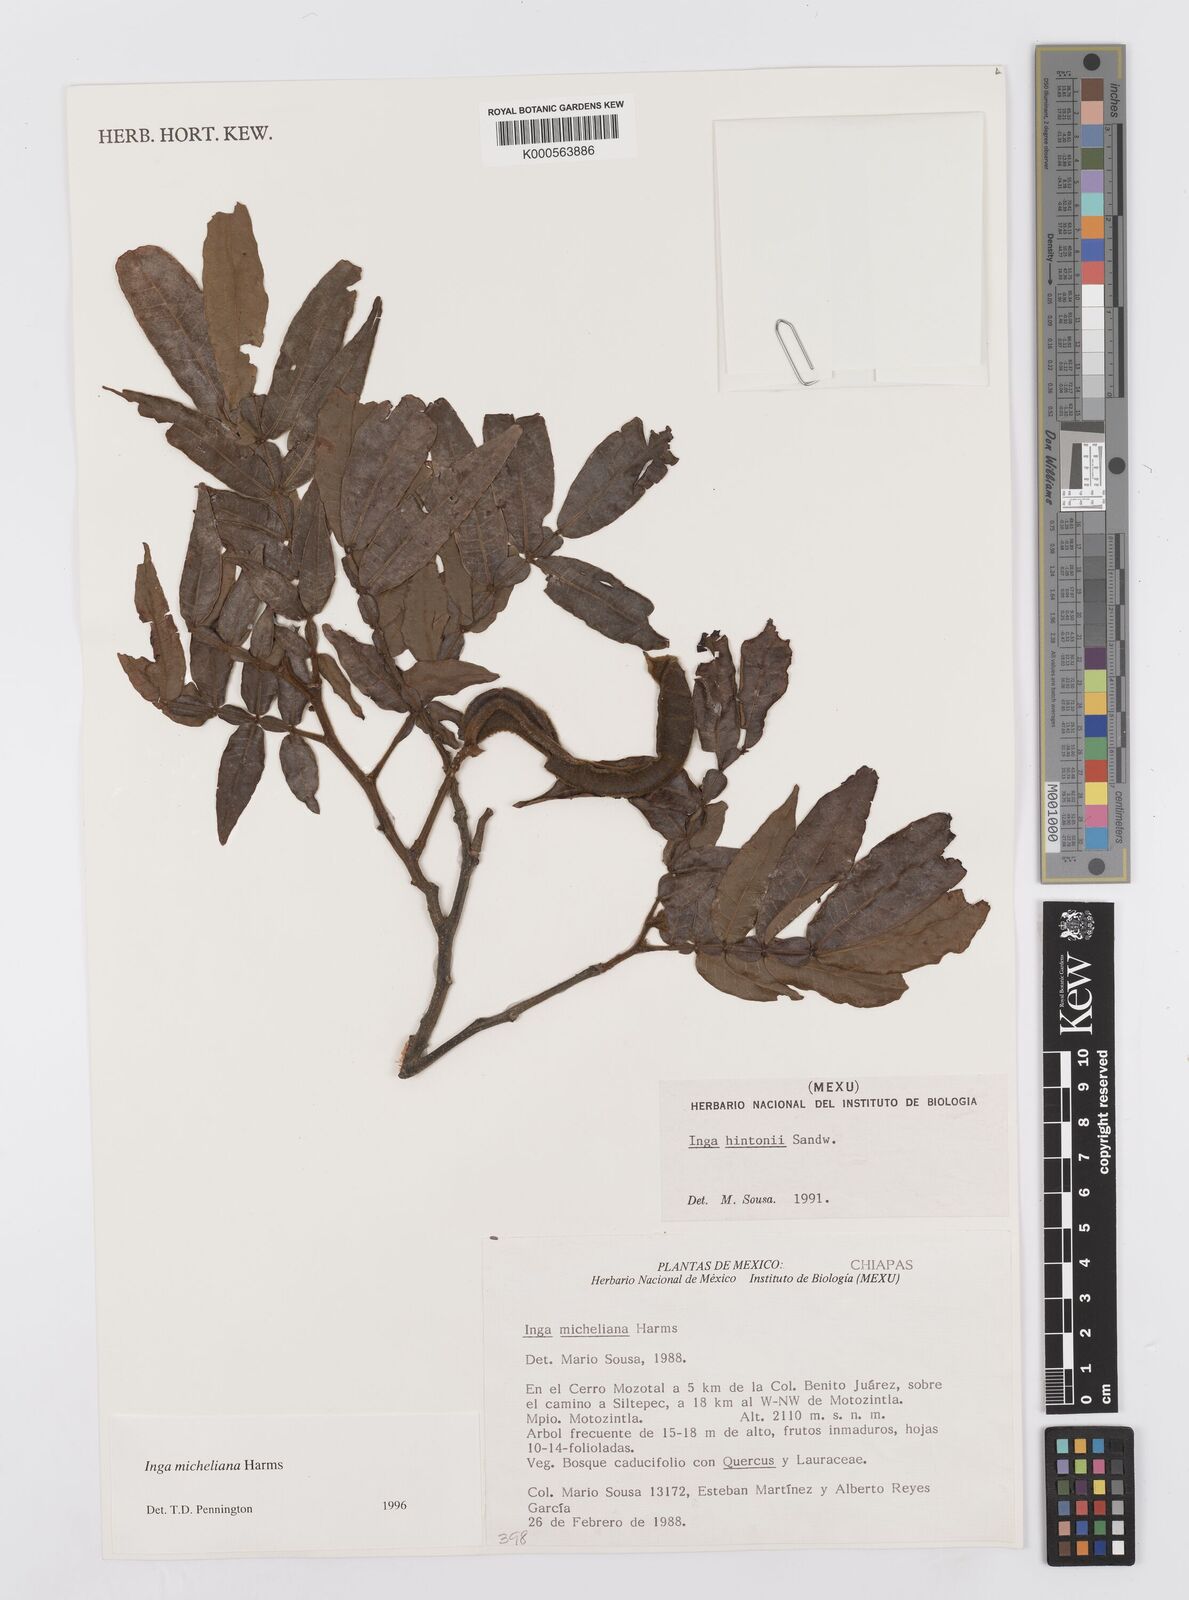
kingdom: Plantae
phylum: Tracheophyta
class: Magnoliopsida
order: Fabales
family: Fabaceae
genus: Inga
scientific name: Inga flexuosa
